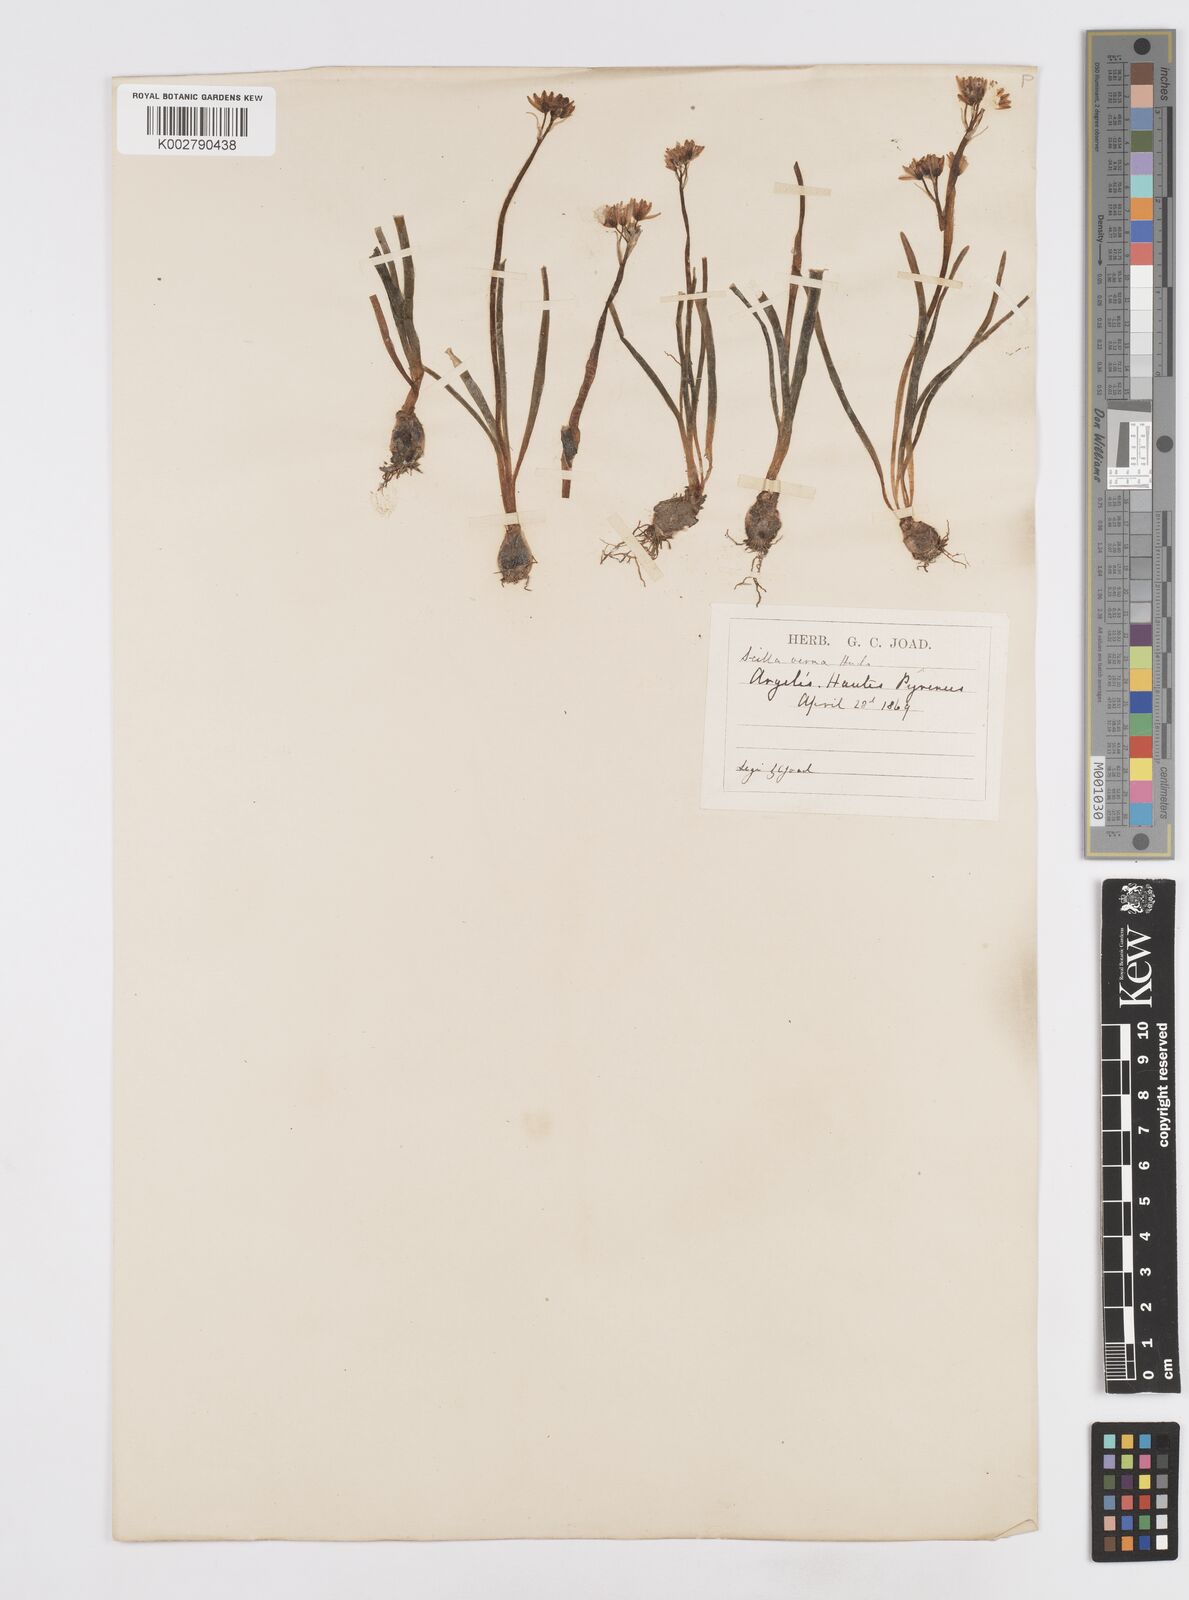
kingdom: Plantae
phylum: Tracheophyta
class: Liliopsida
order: Asparagales
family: Asparagaceae
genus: Scilla
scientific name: Scilla verna
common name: Spring squill
